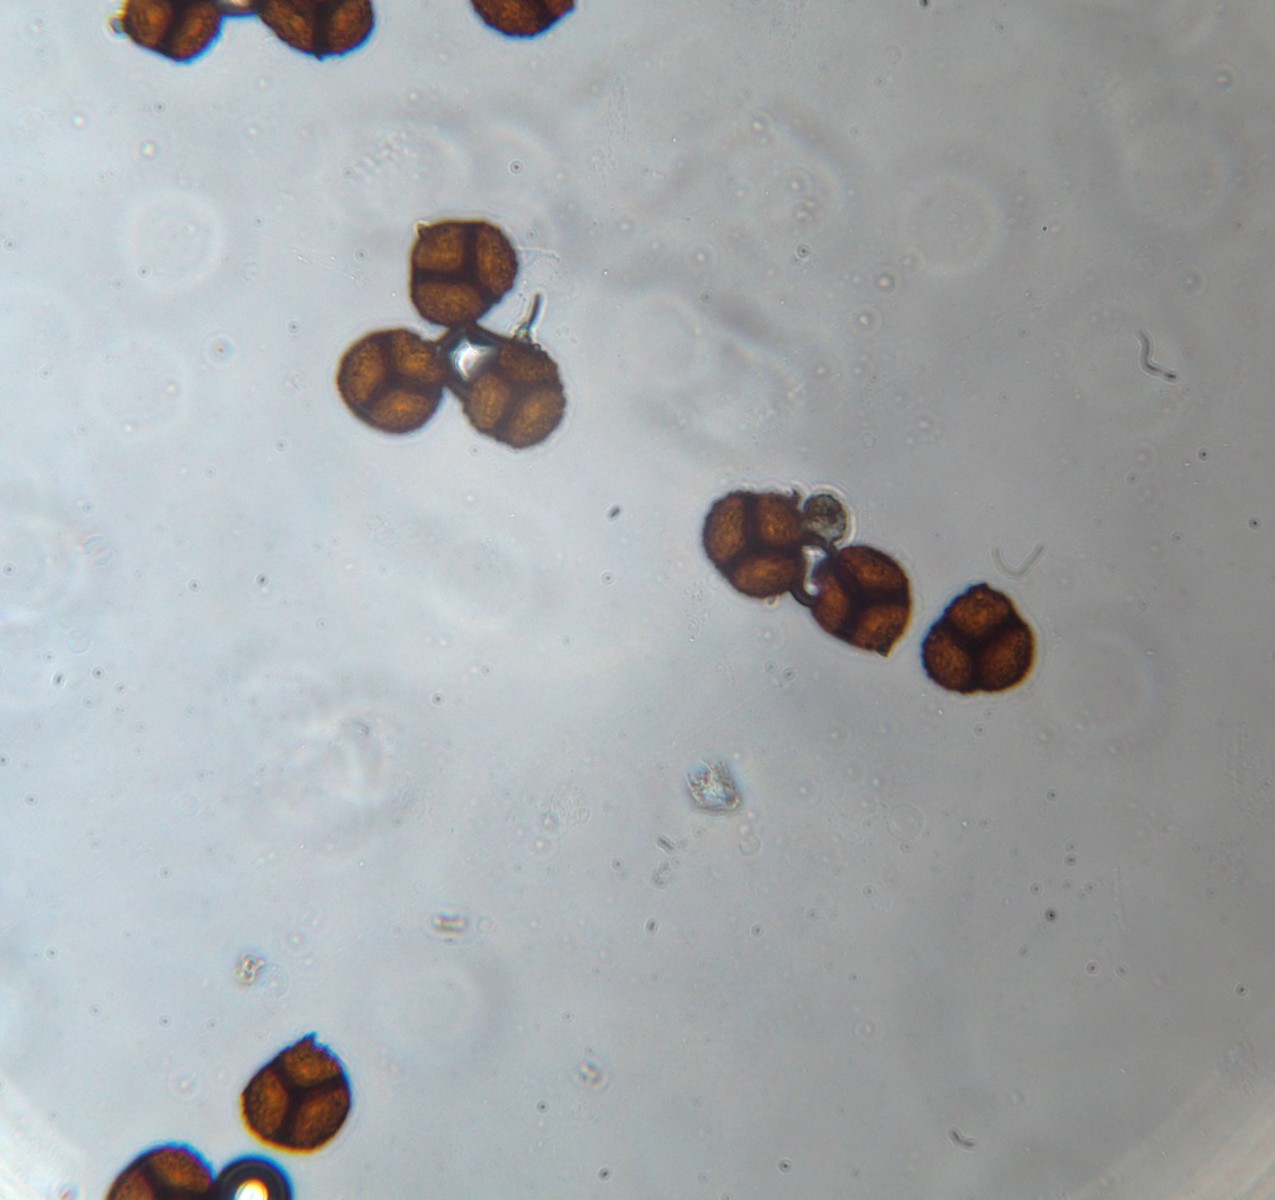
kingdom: Fungi
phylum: Basidiomycota
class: Pucciniomycetes
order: Pucciniales
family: Raveneliaceae
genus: Triphragmium
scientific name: Triphragmium ulmariae
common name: almindelig mjødurtrust
